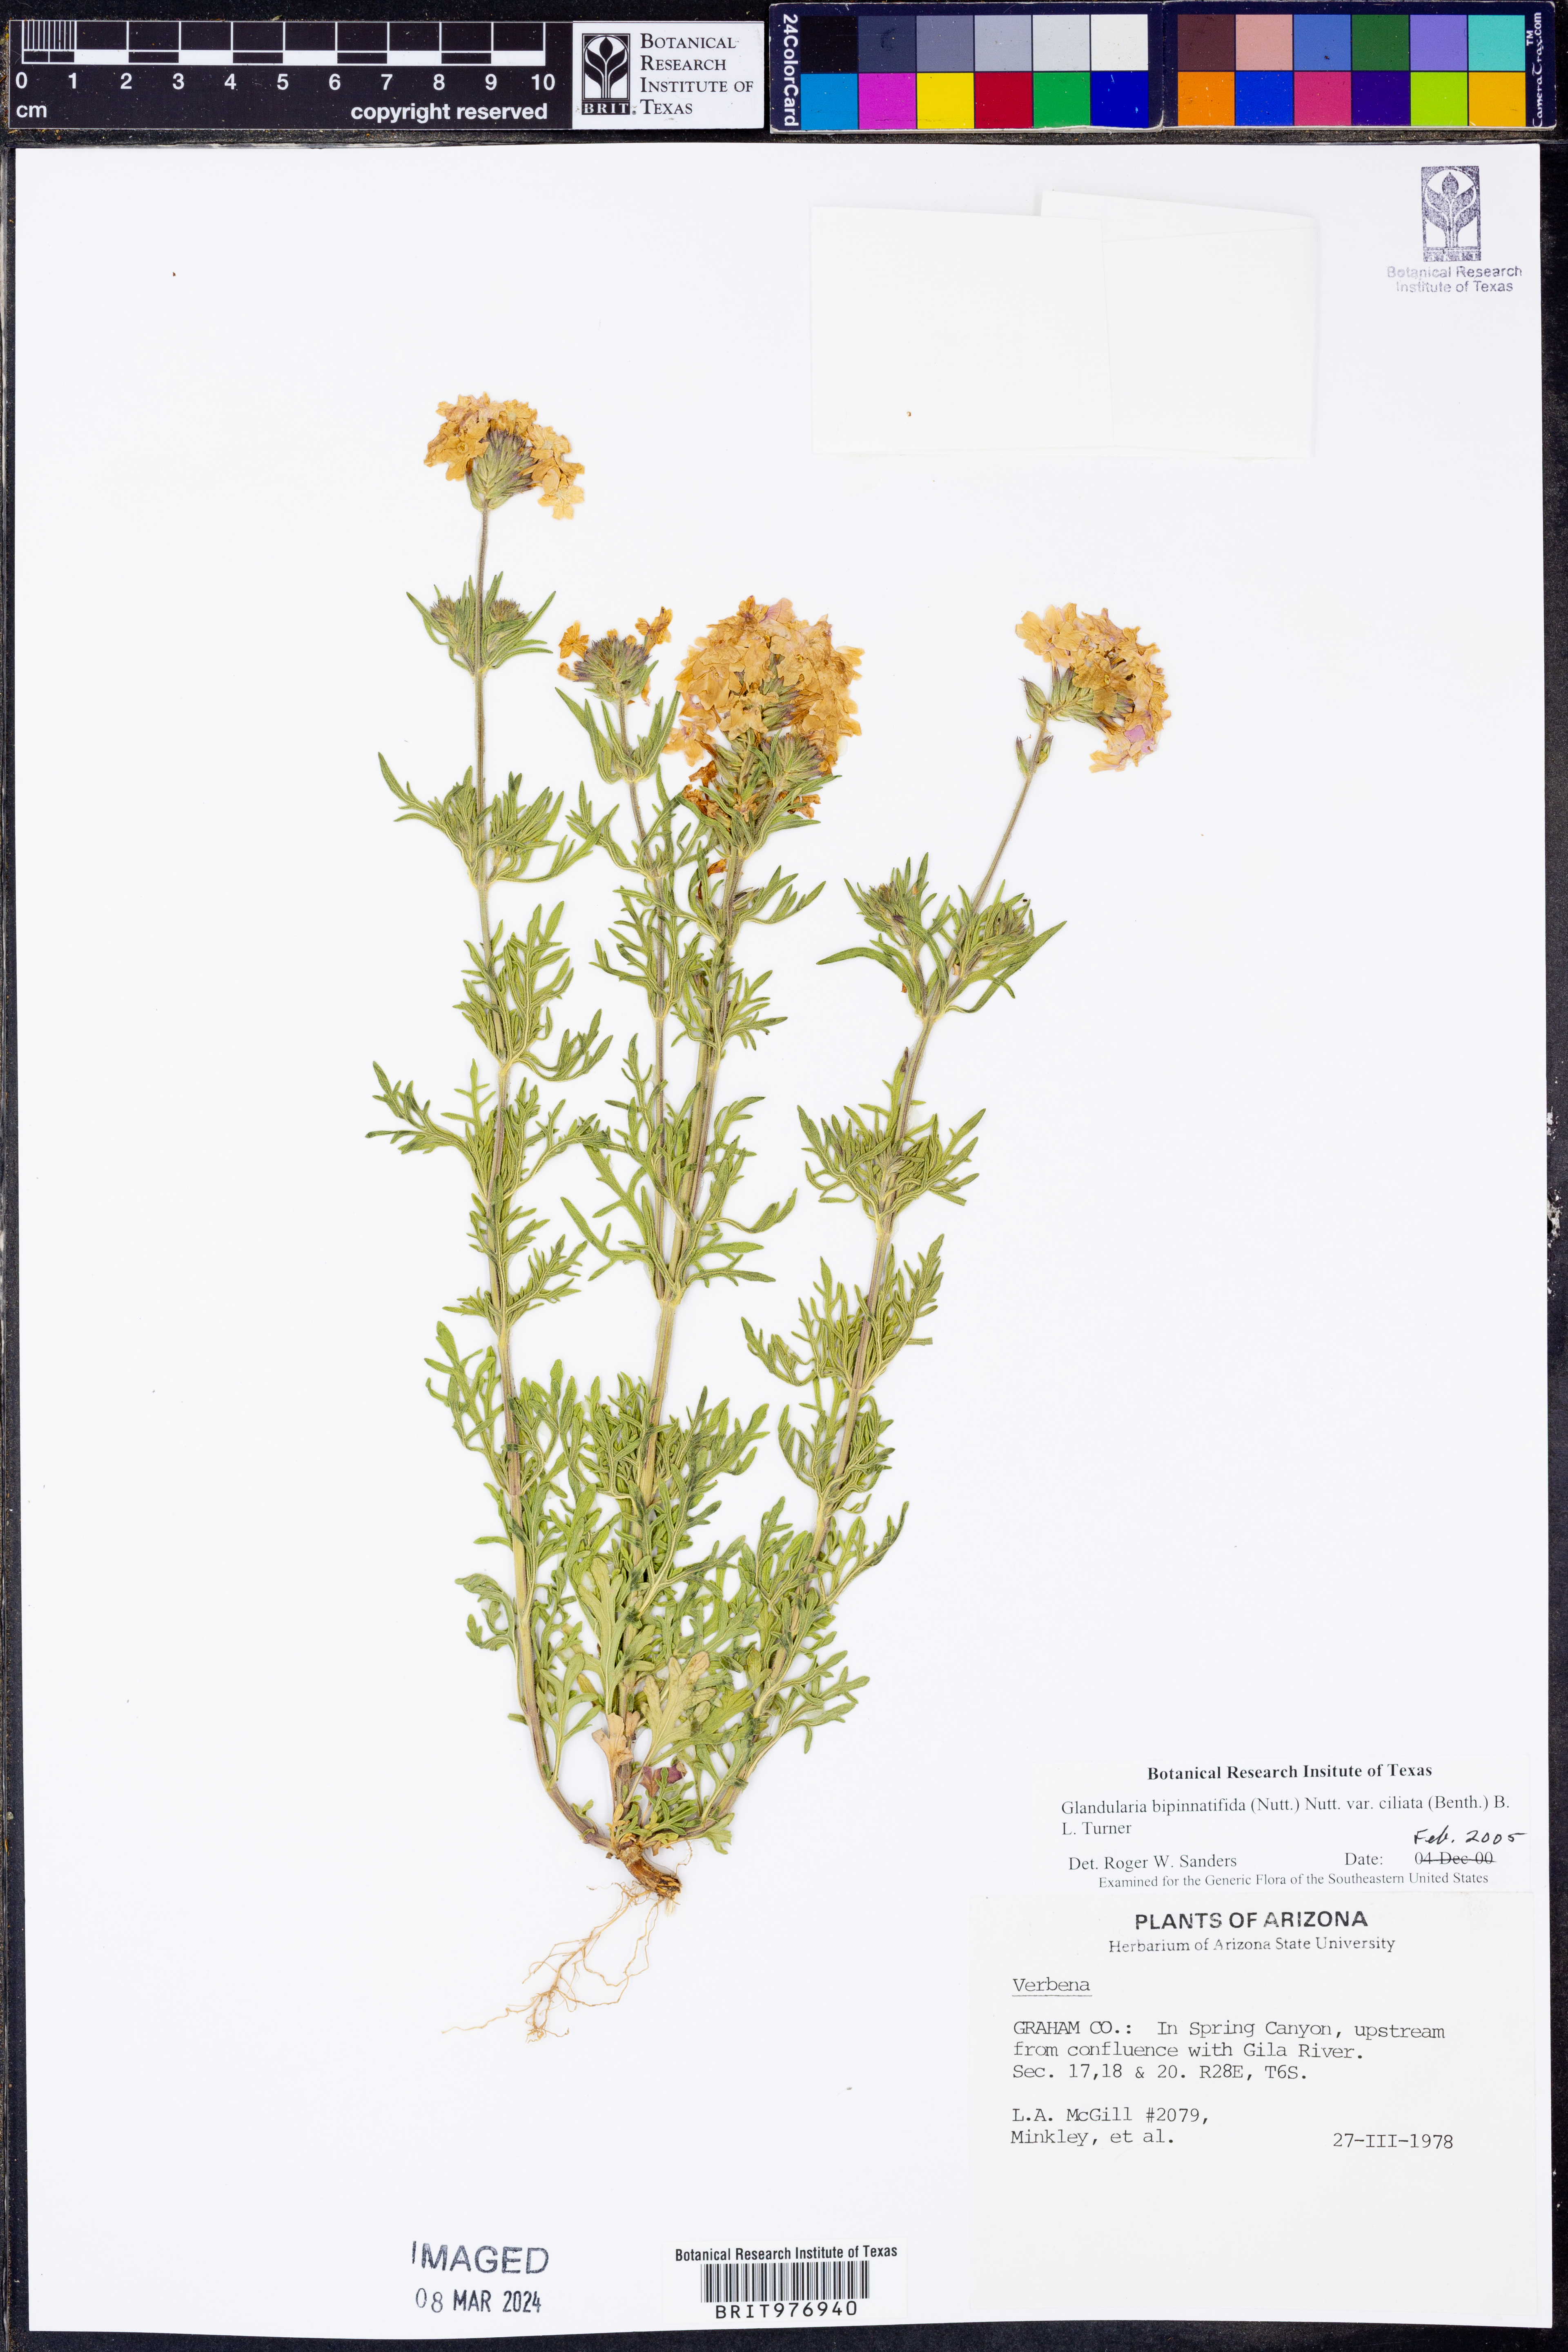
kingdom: Plantae
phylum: Tracheophyta
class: Magnoliopsida
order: Lamiales
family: Verbenaceae
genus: Verbena
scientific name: Verbena bipinnatifida
